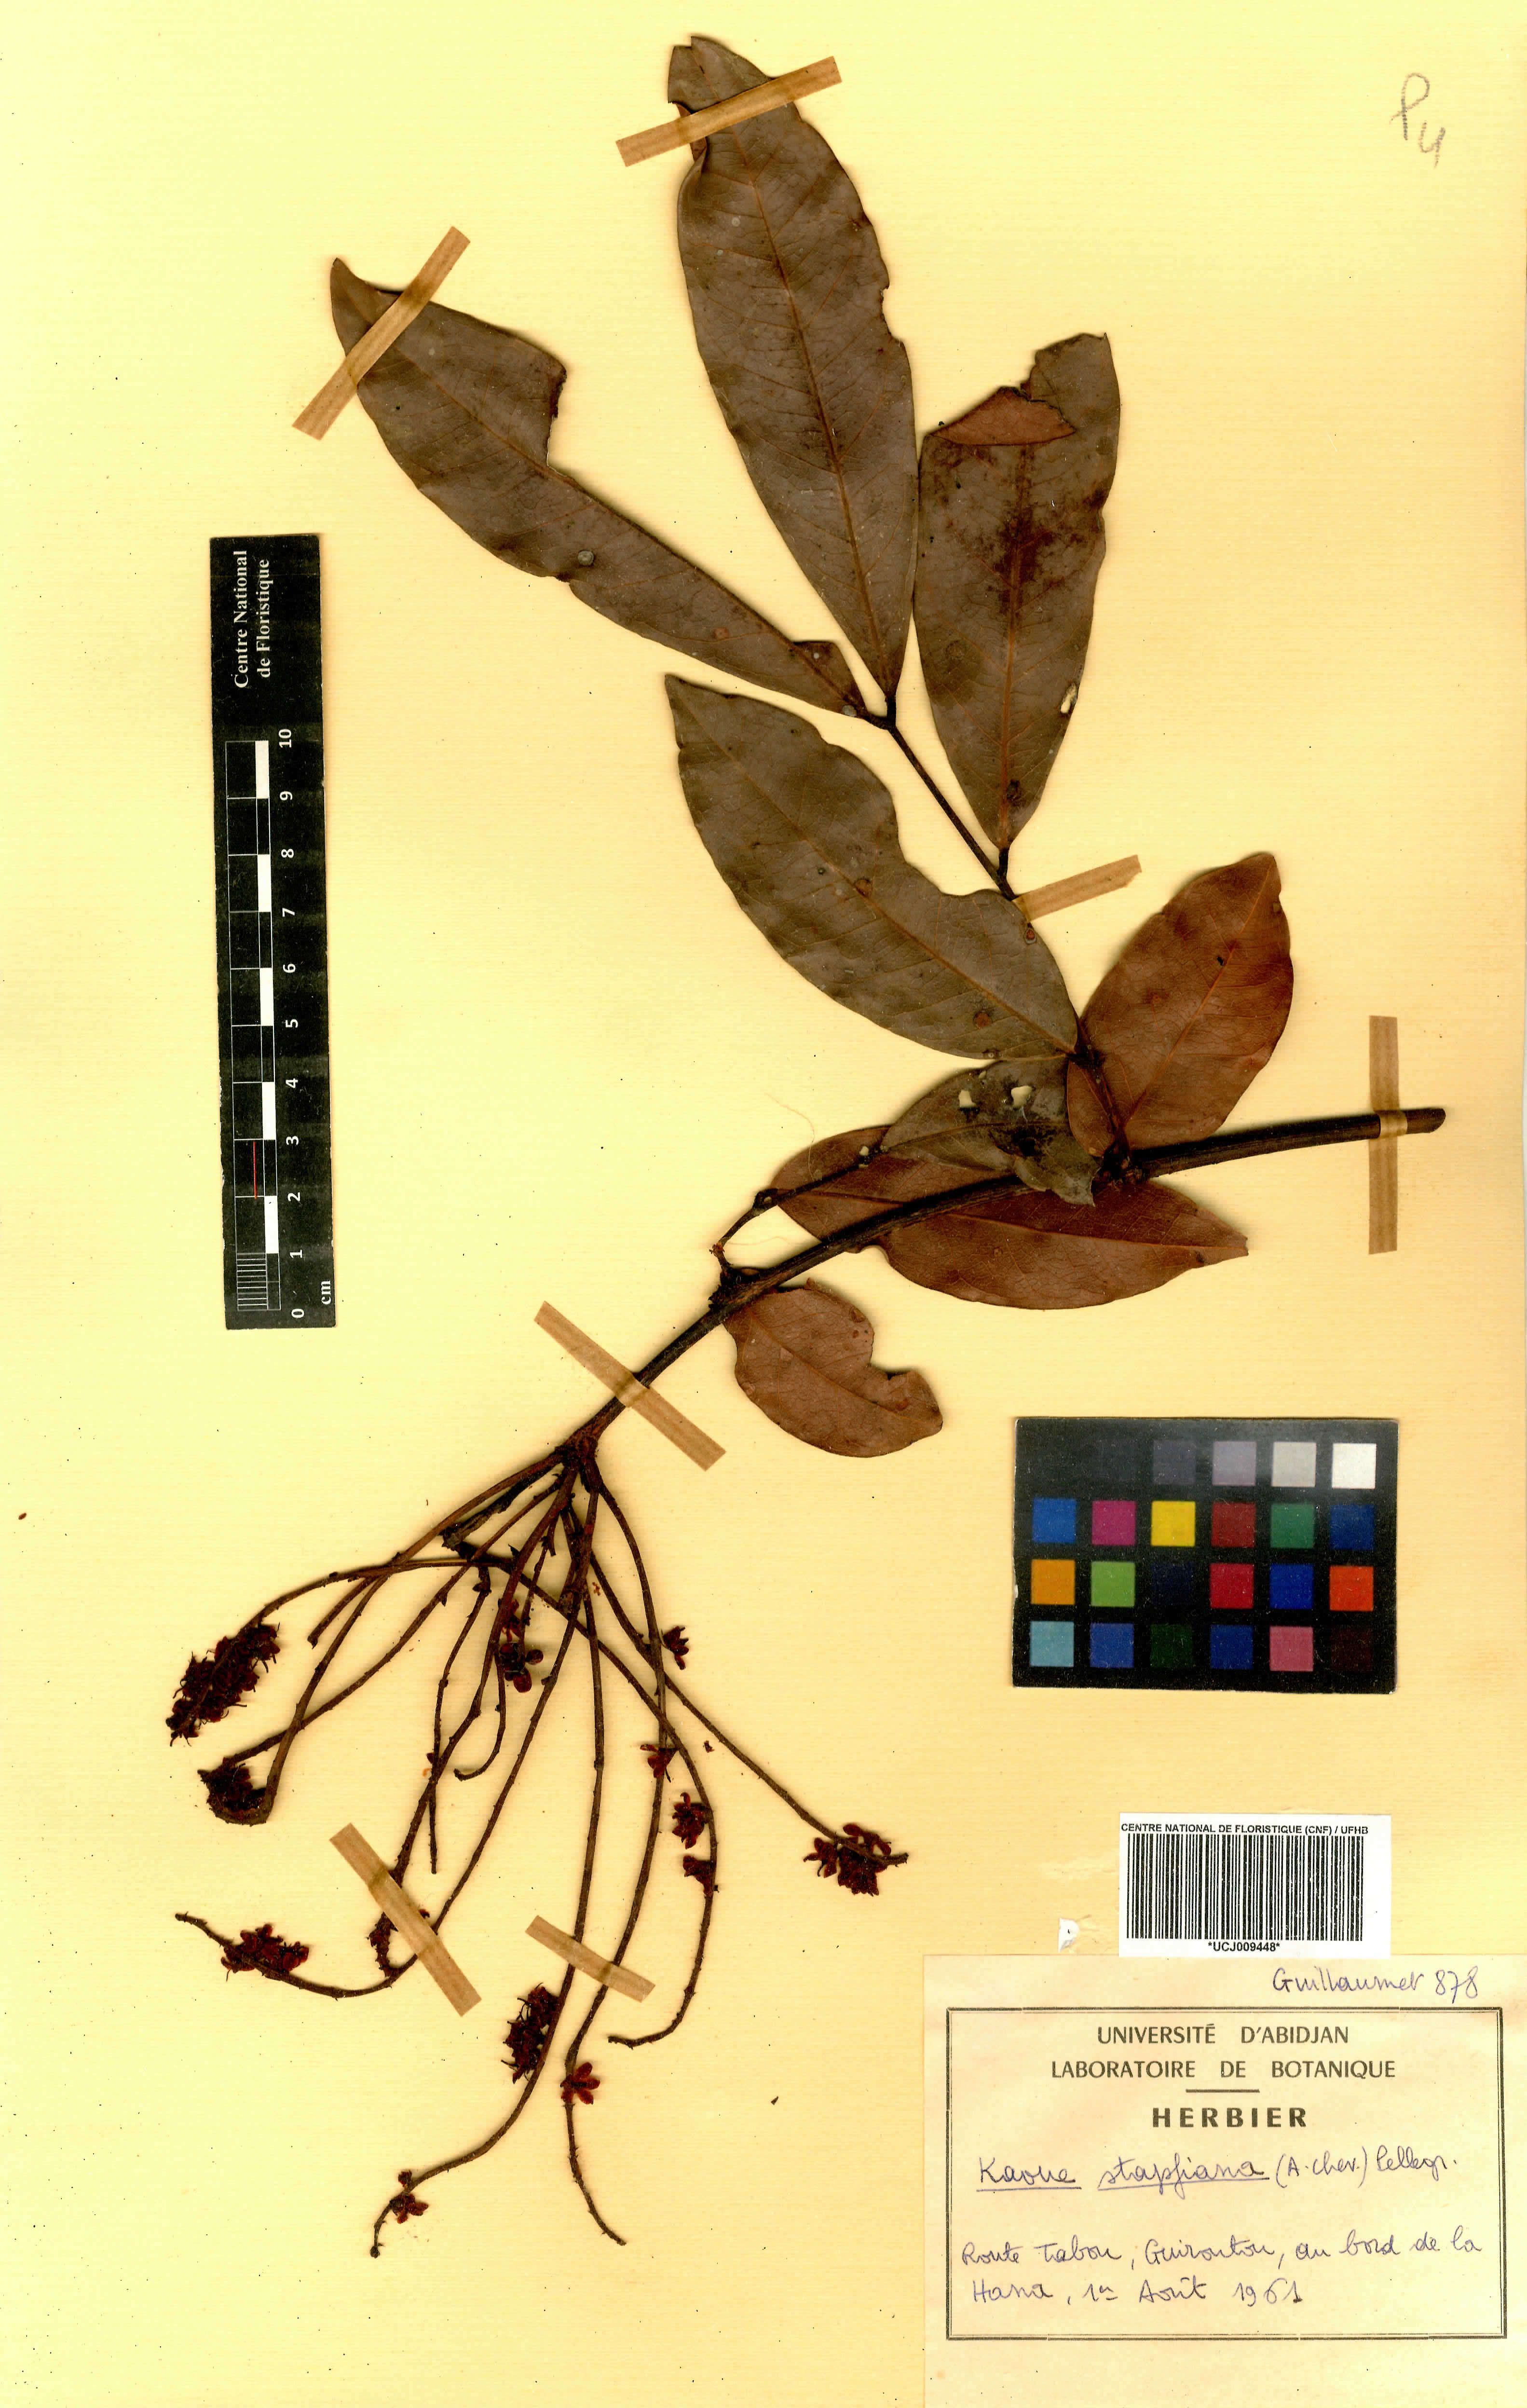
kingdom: Plantae
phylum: Tracheophyta
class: Magnoliopsida
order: Fabales
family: Fabaceae
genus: Stachyothyrsus
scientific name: Stachyothyrsus stapfiana
